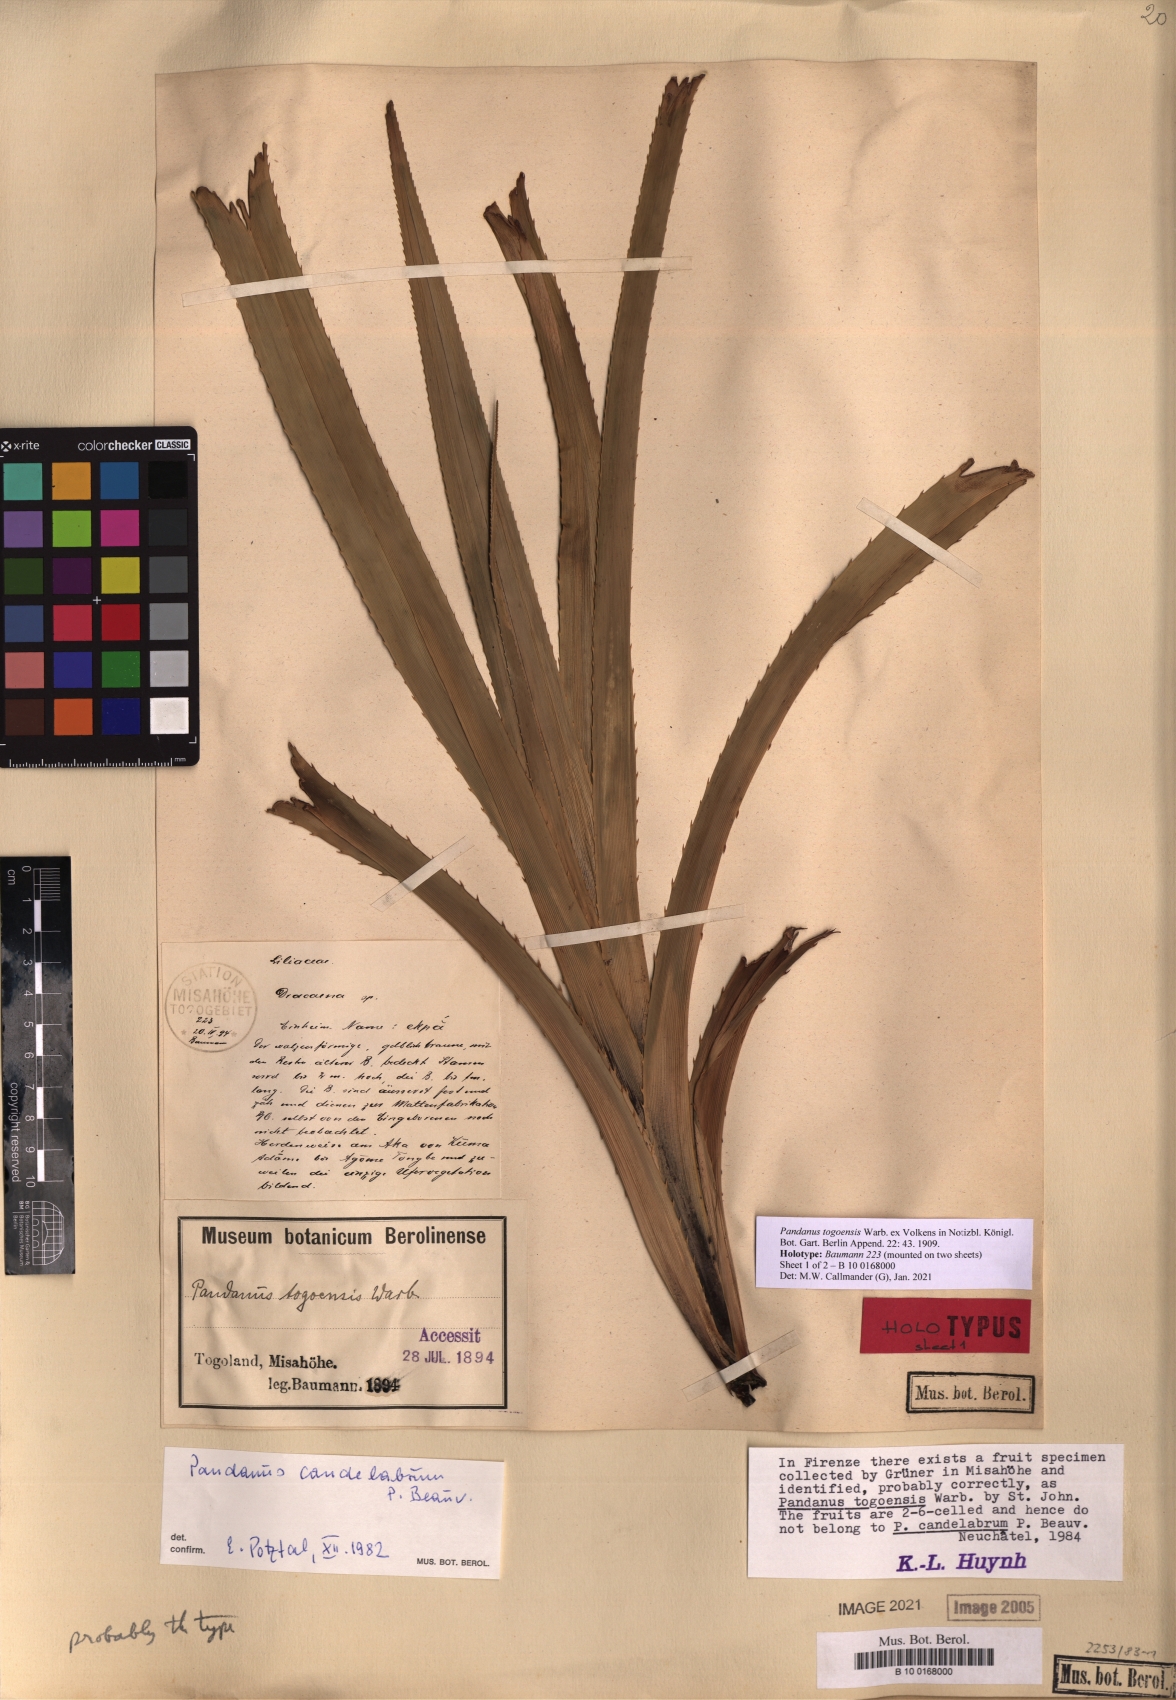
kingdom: Plantae
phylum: Tracheophyta
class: Liliopsida
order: Pandanales
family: Pandanaceae
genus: Pandanus
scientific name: Pandanus candelabrum
